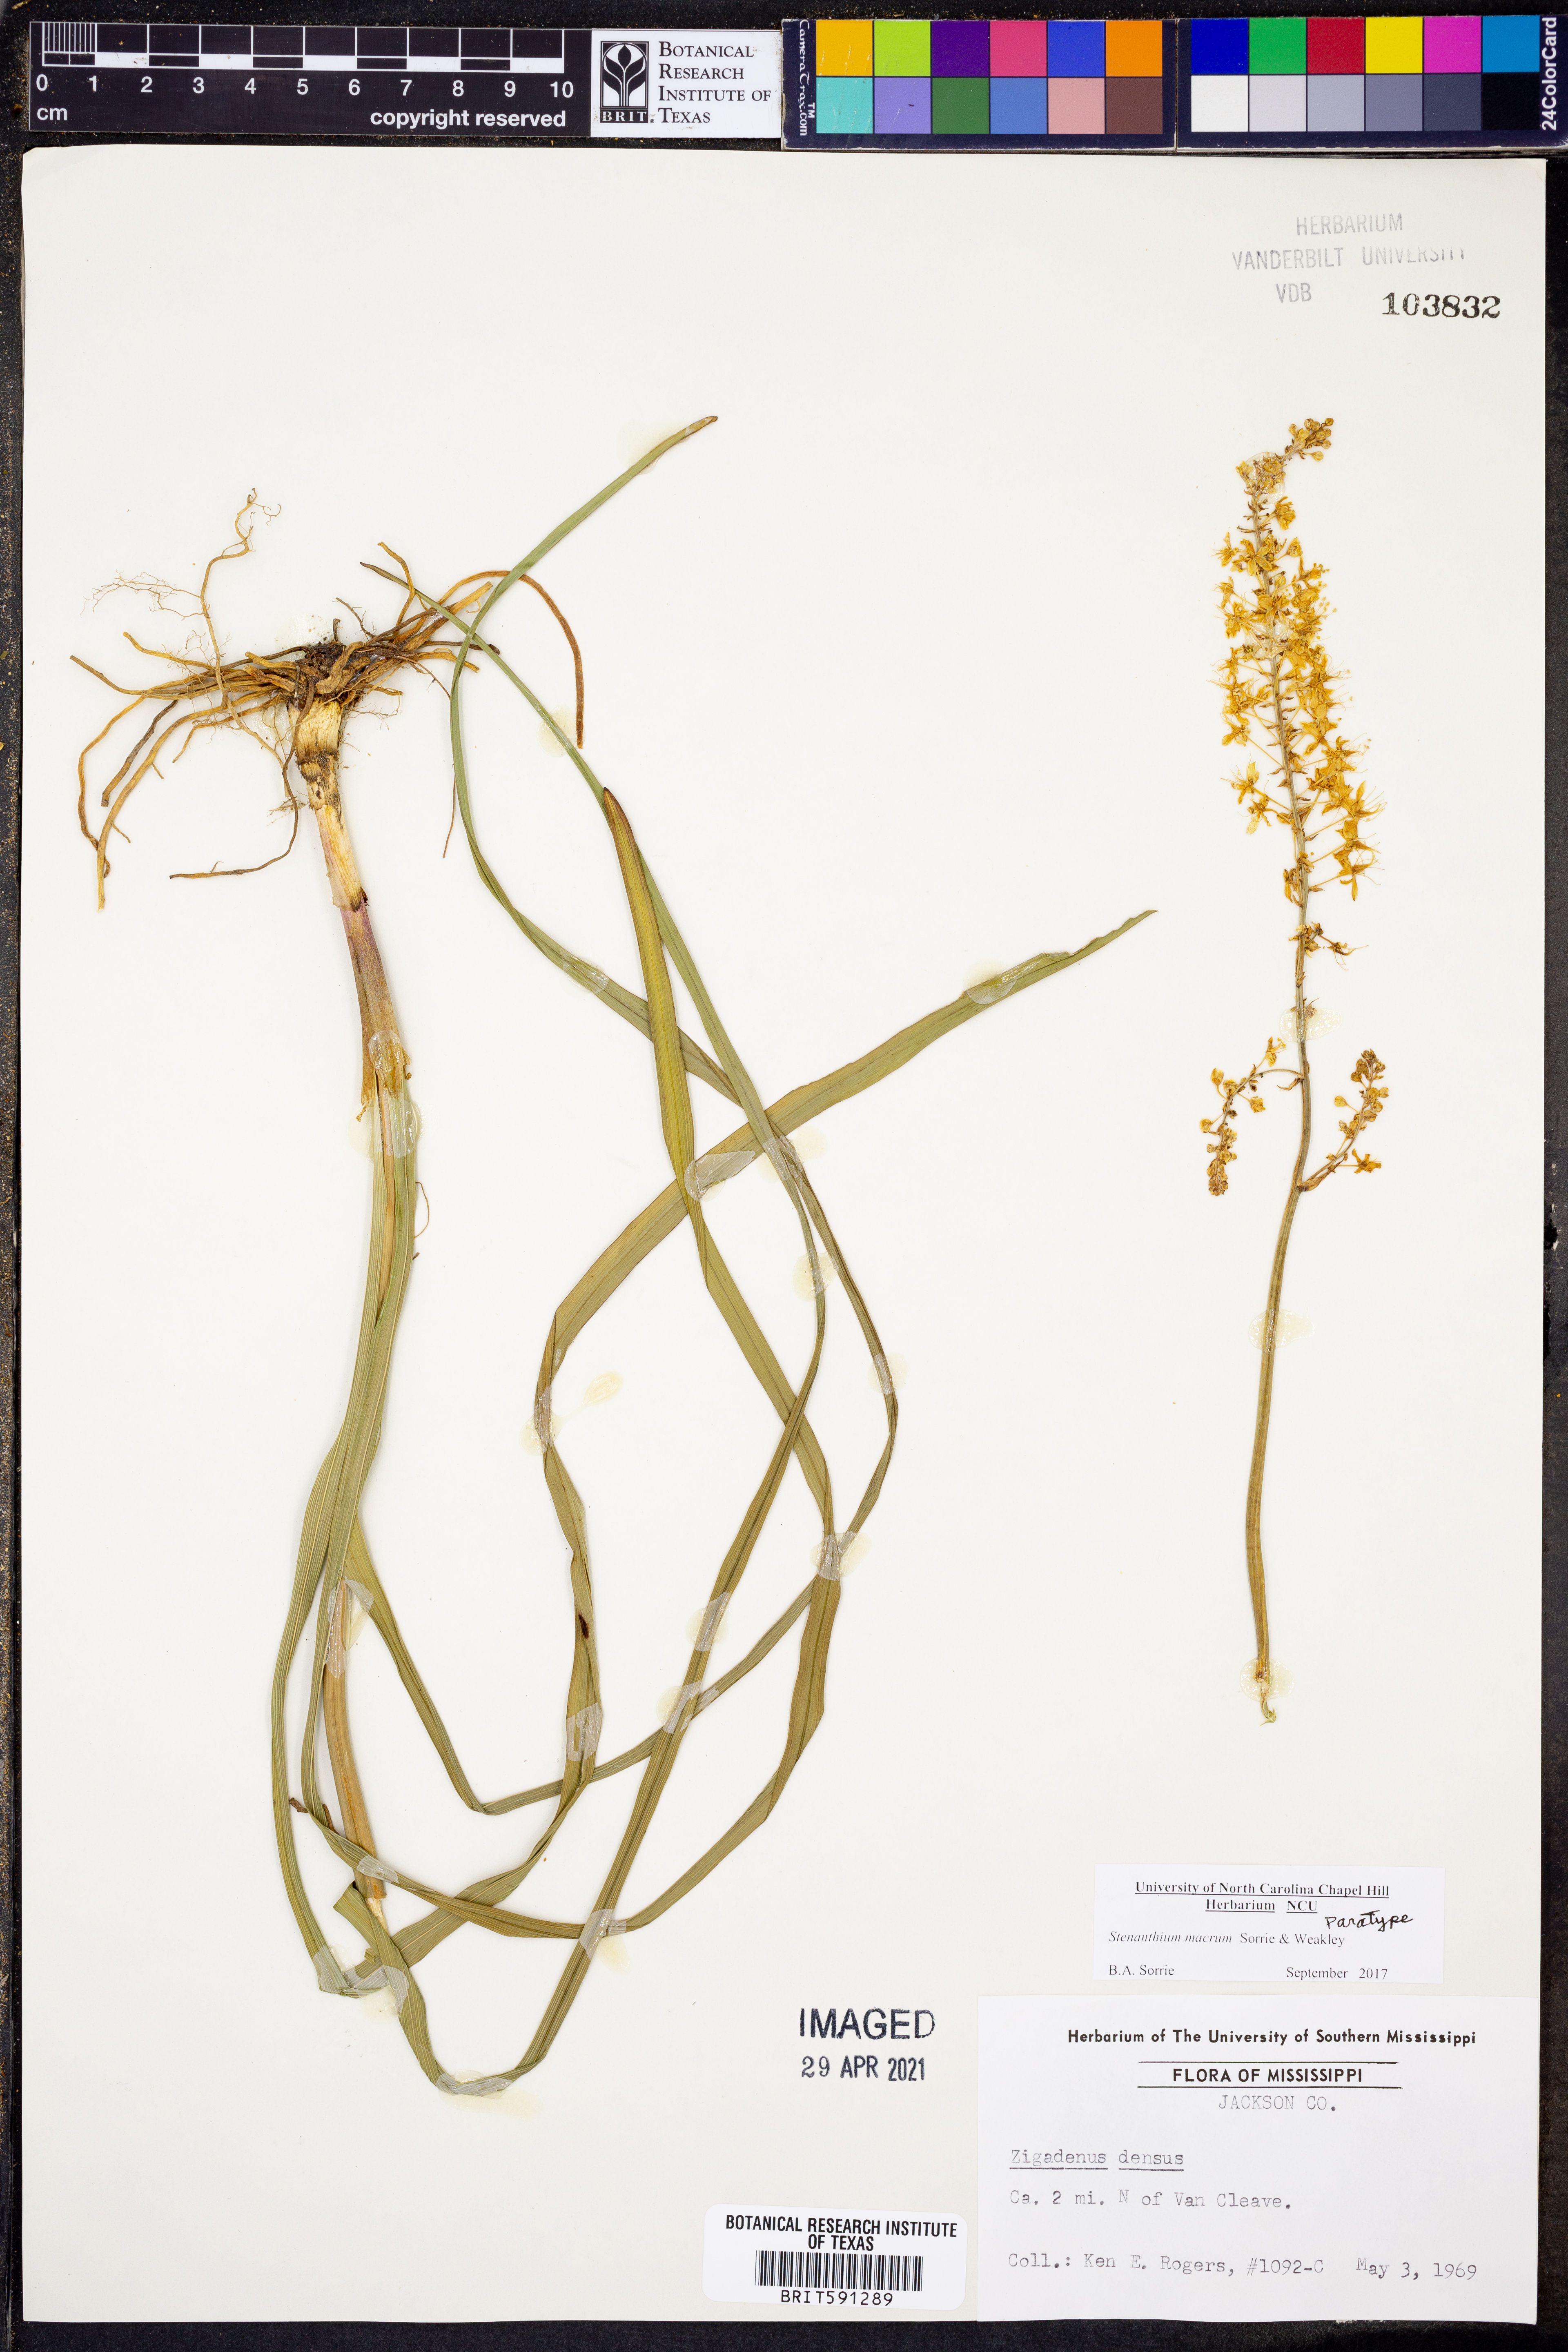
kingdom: Plantae
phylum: Tracheophyta
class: Liliopsida
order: Liliales
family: Melanthiaceae
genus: Stenanthium
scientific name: Stenanthium texanum
